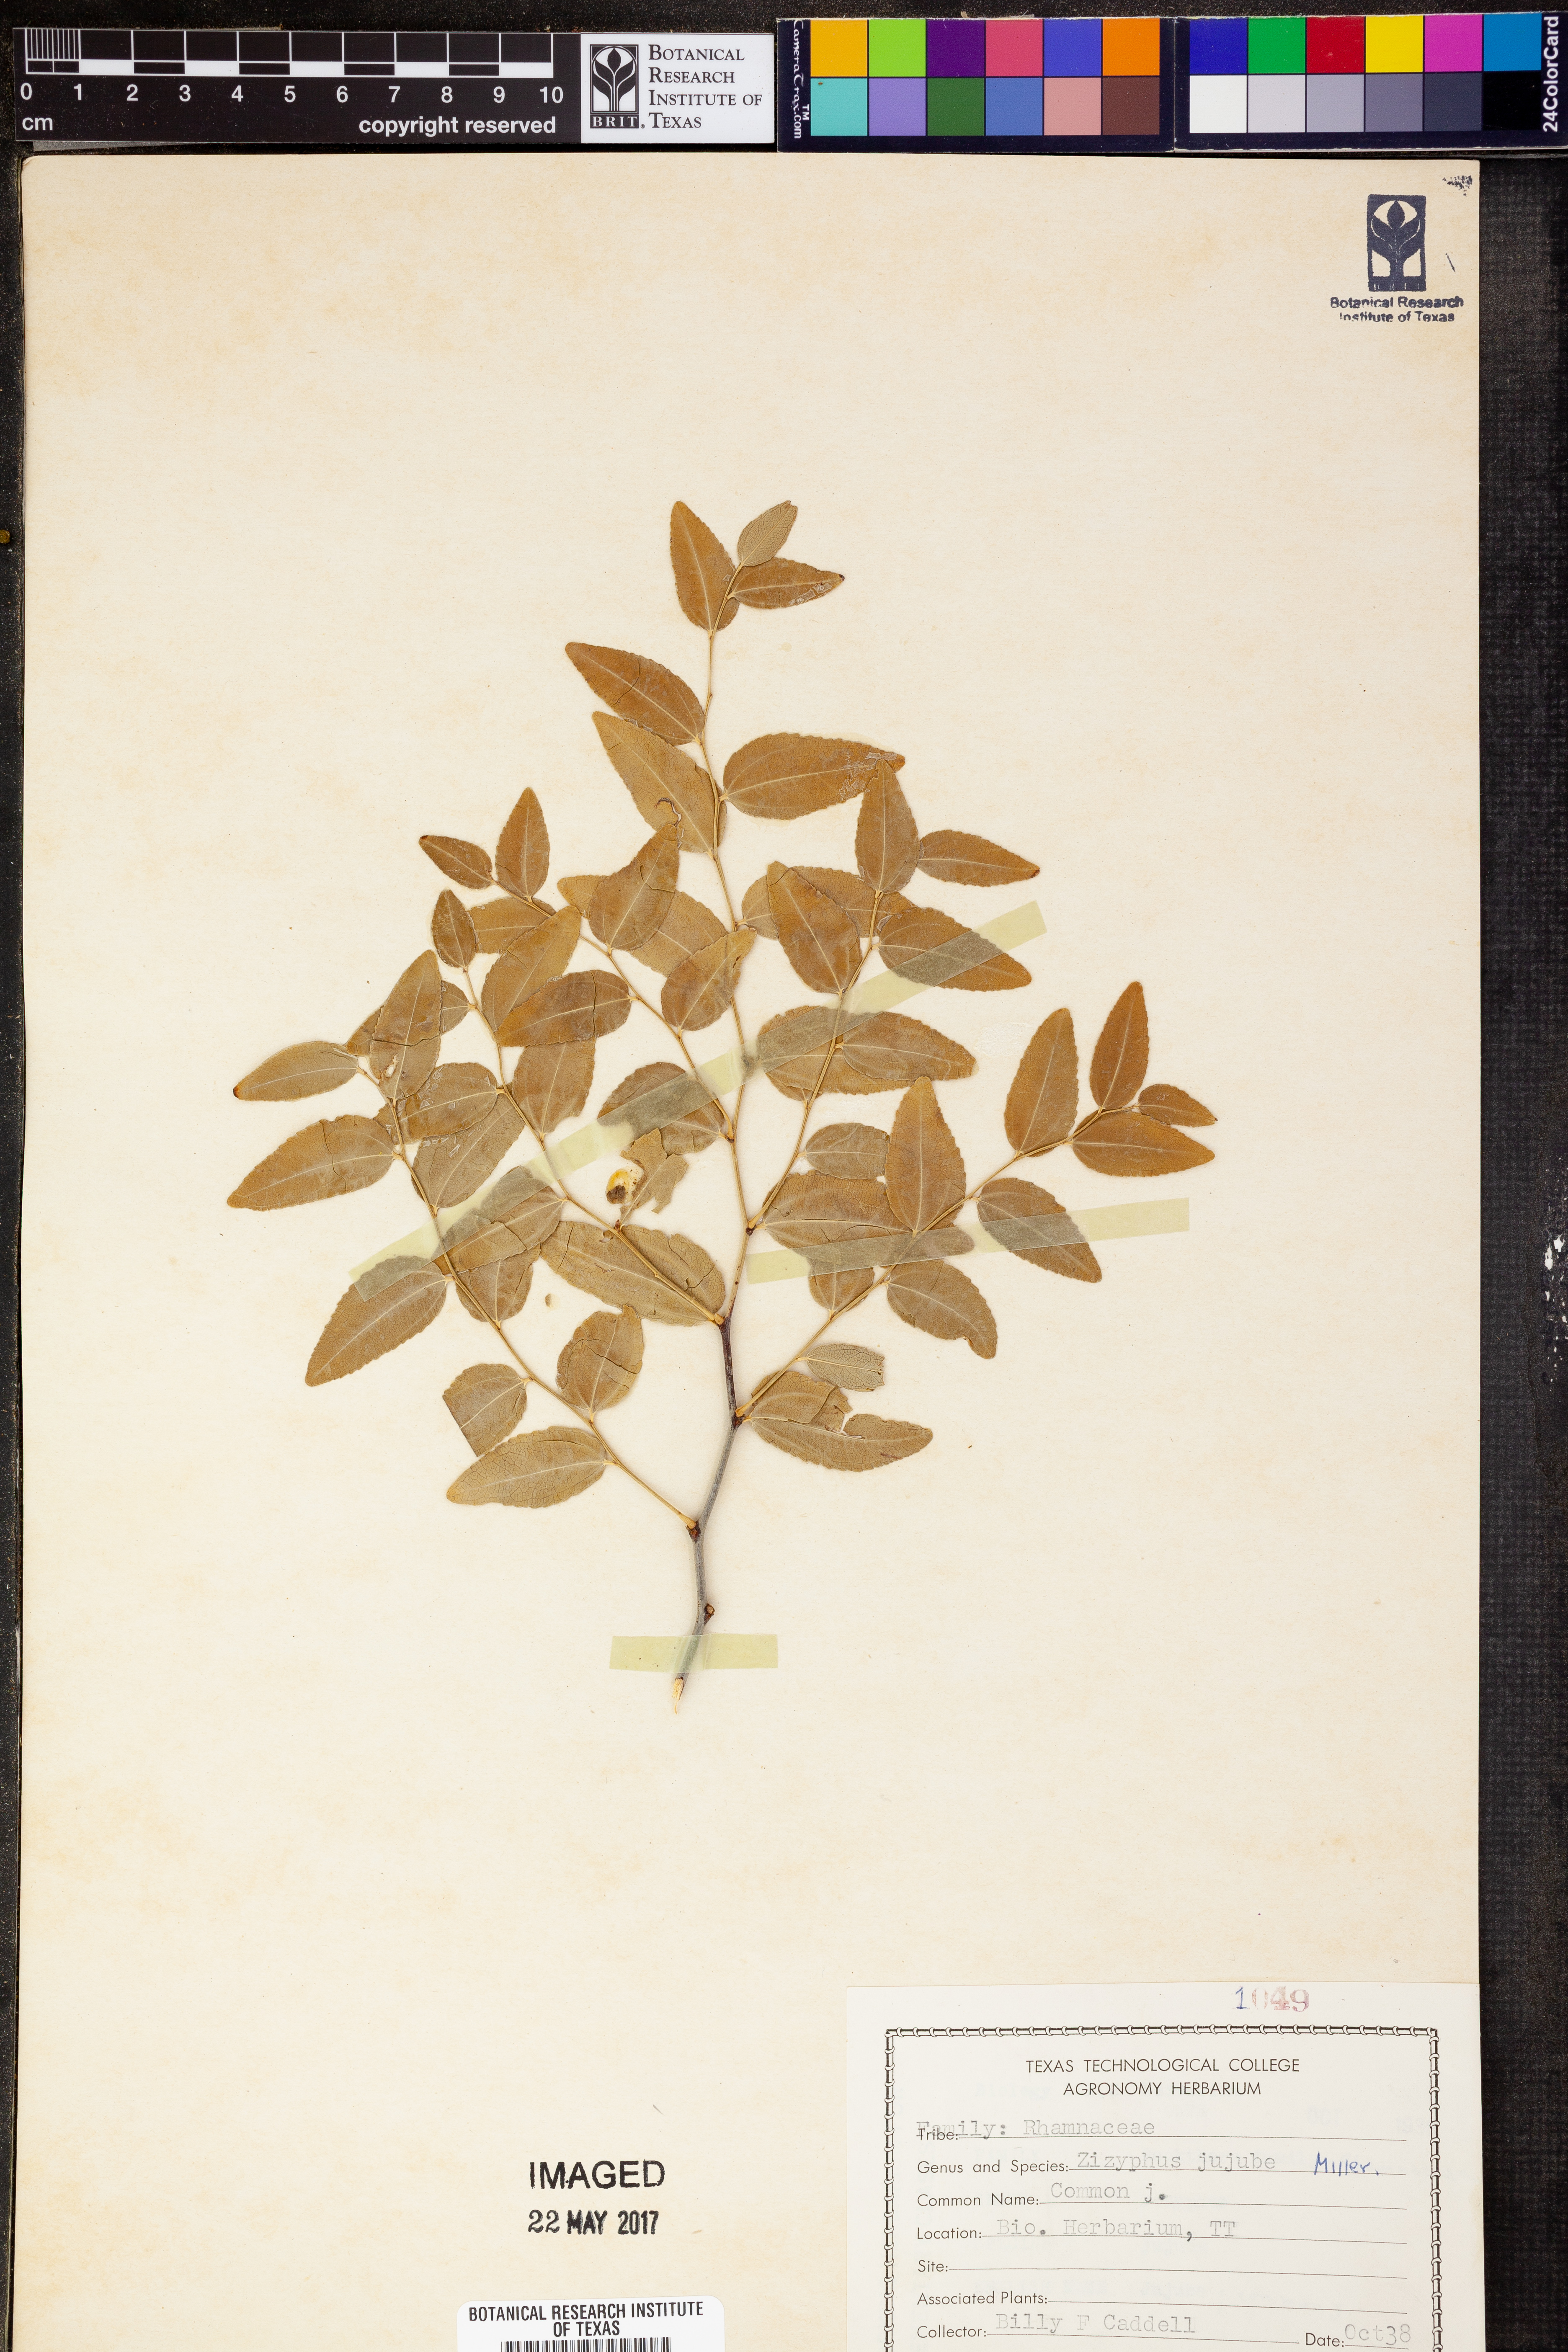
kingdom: Plantae
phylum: Tracheophyta
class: Magnoliopsida
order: Rosales
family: Rhamnaceae
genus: Ziziphus
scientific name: Ziziphus jujuba
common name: Jujube red date
